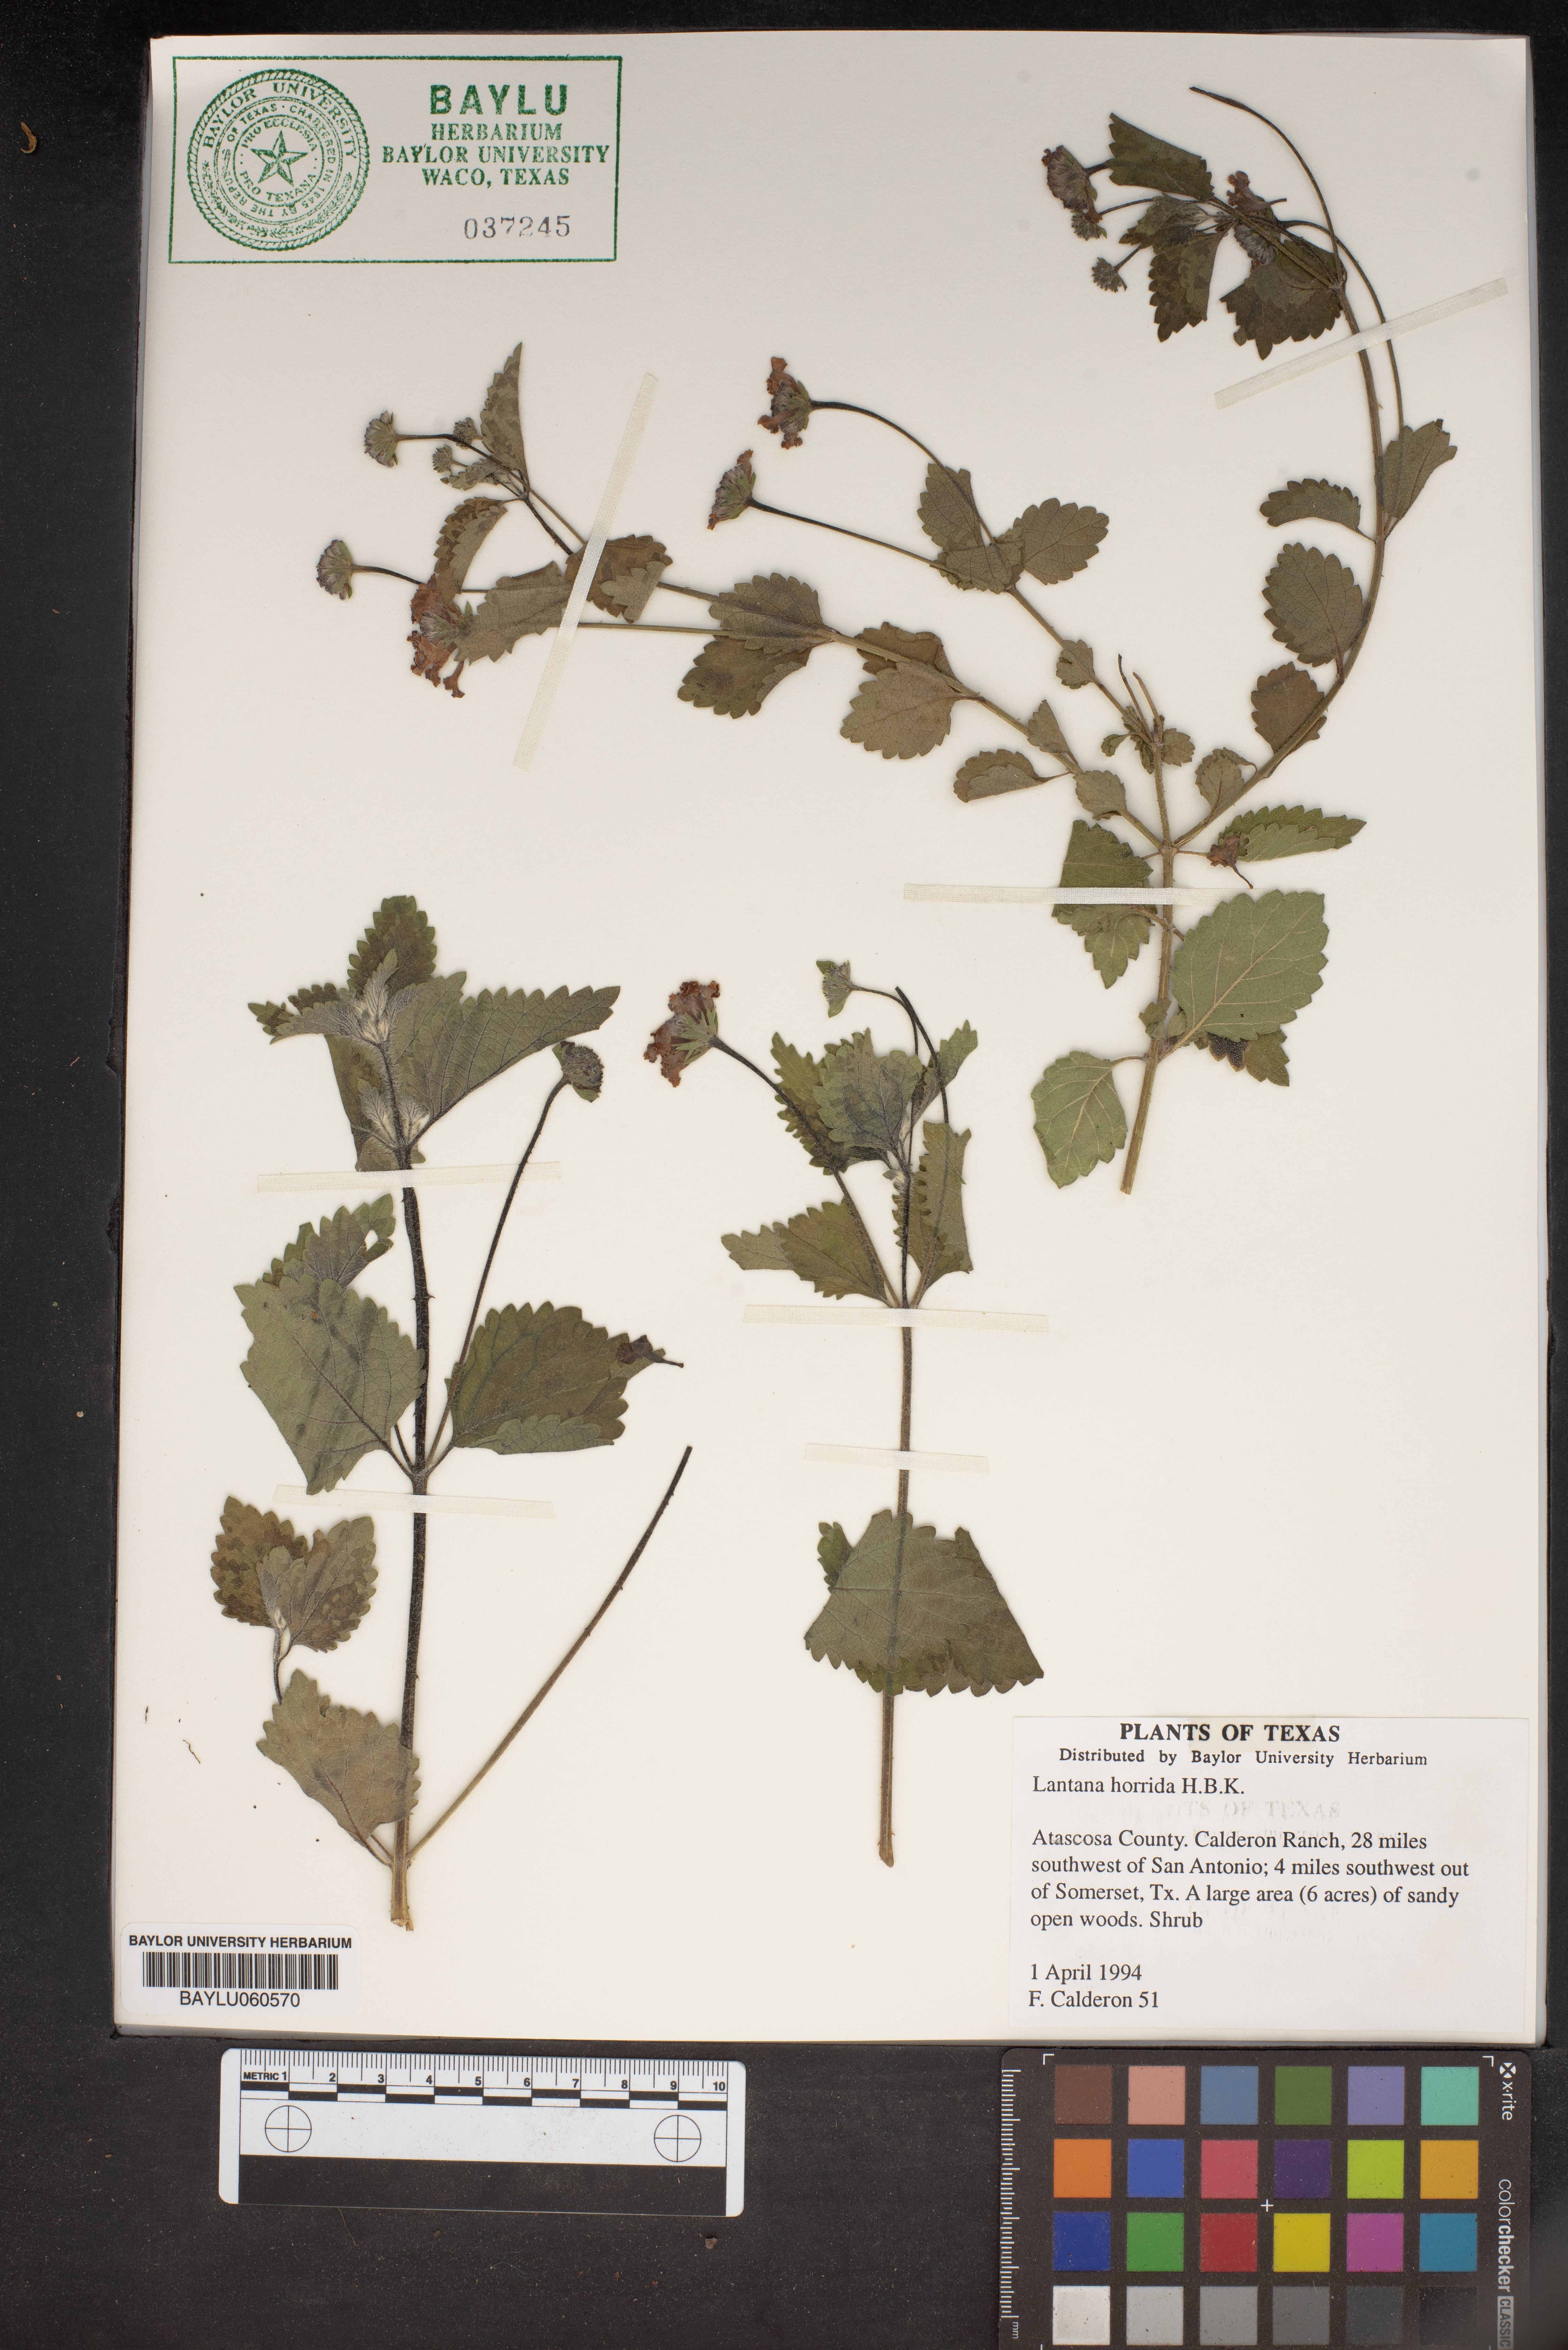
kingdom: Plantae
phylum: Tracheophyta
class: Magnoliopsida
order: Lamiales
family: Verbenaceae
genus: Lantana
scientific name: Lantana horrida
